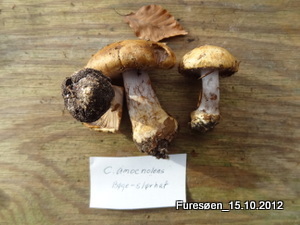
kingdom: Fungi
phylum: Basidiomycota
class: Agaricomycetes
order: Agaricales
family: Cortinariaceae
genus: Cortinarius
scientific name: Cortinarius anserinus
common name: bøge-slørhat
